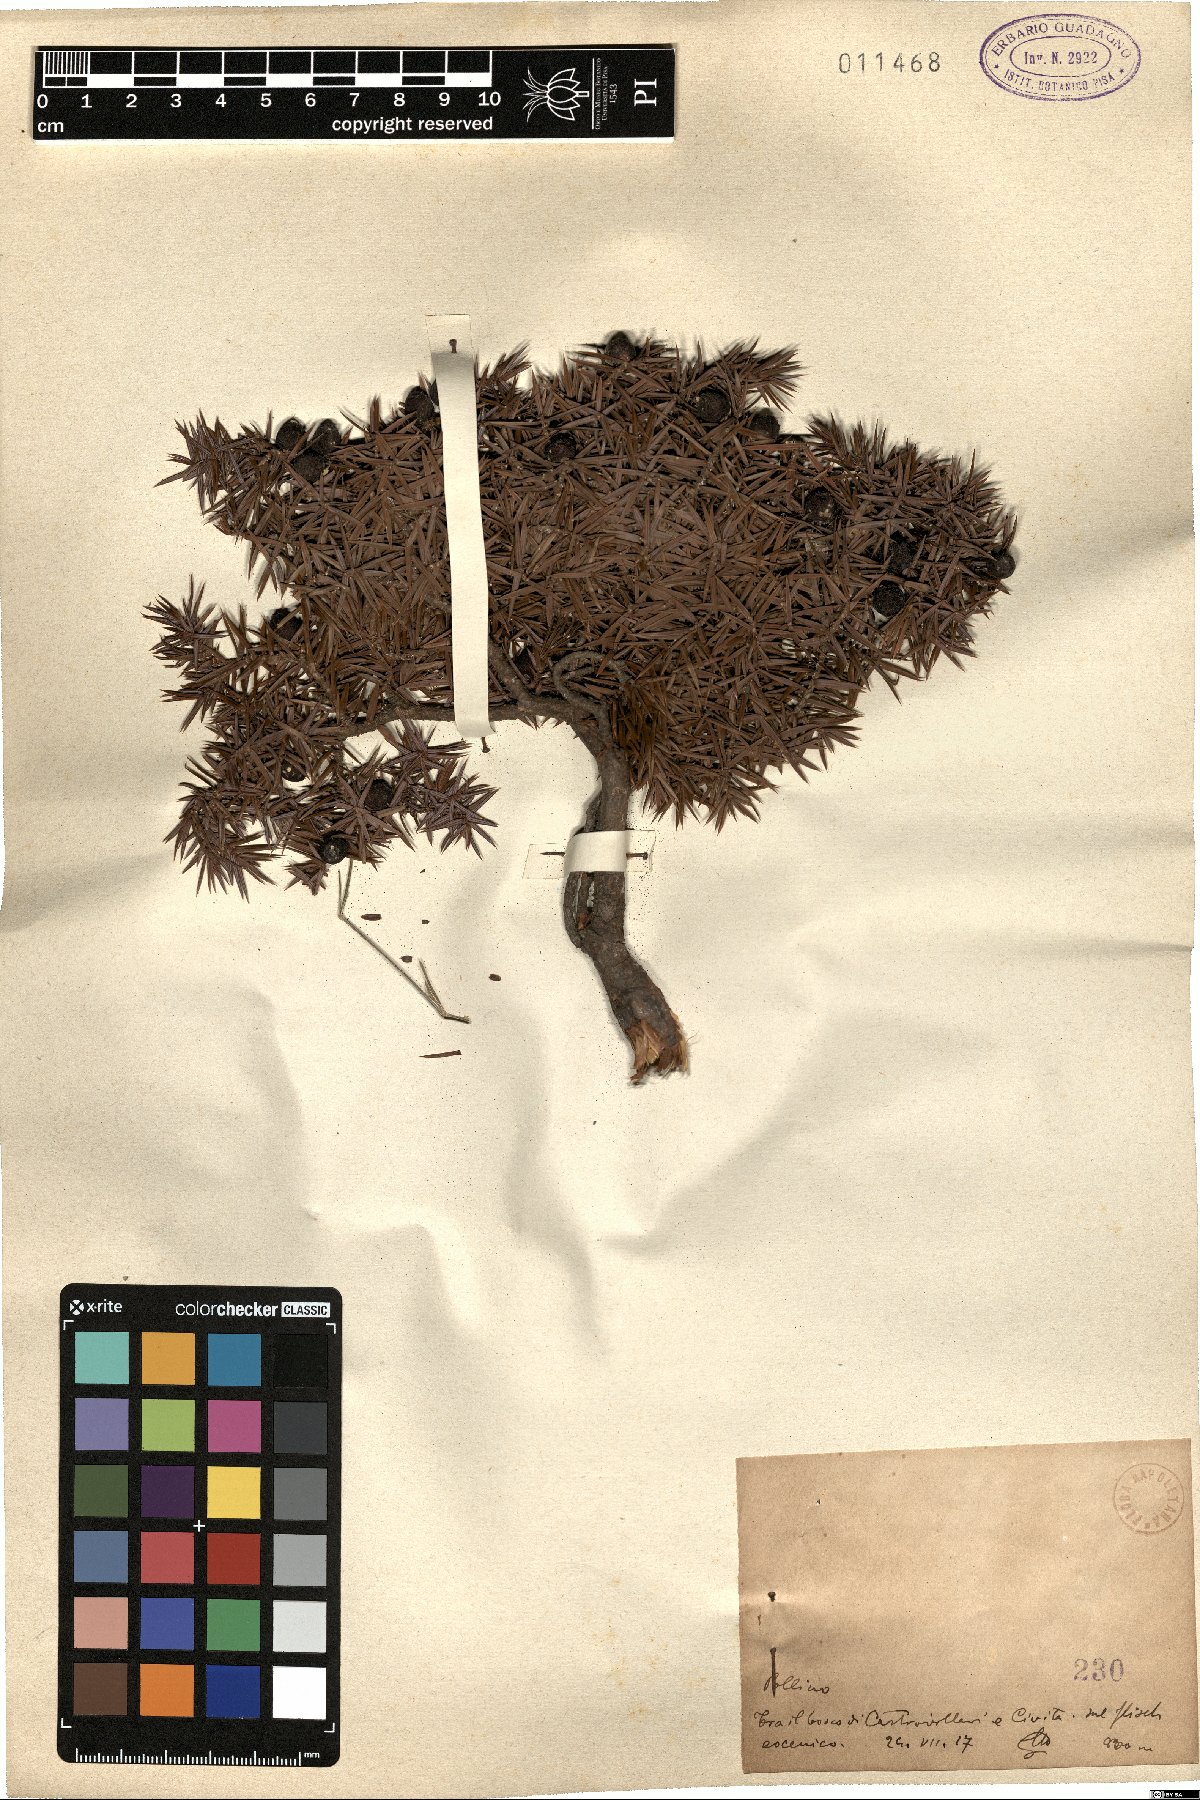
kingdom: Plantae
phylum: Tracheophyta
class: Pinopsida
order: Pinales
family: Cupressaceae
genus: Juniperus
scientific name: Juniperus oxycedrus
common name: Prickly juniper
